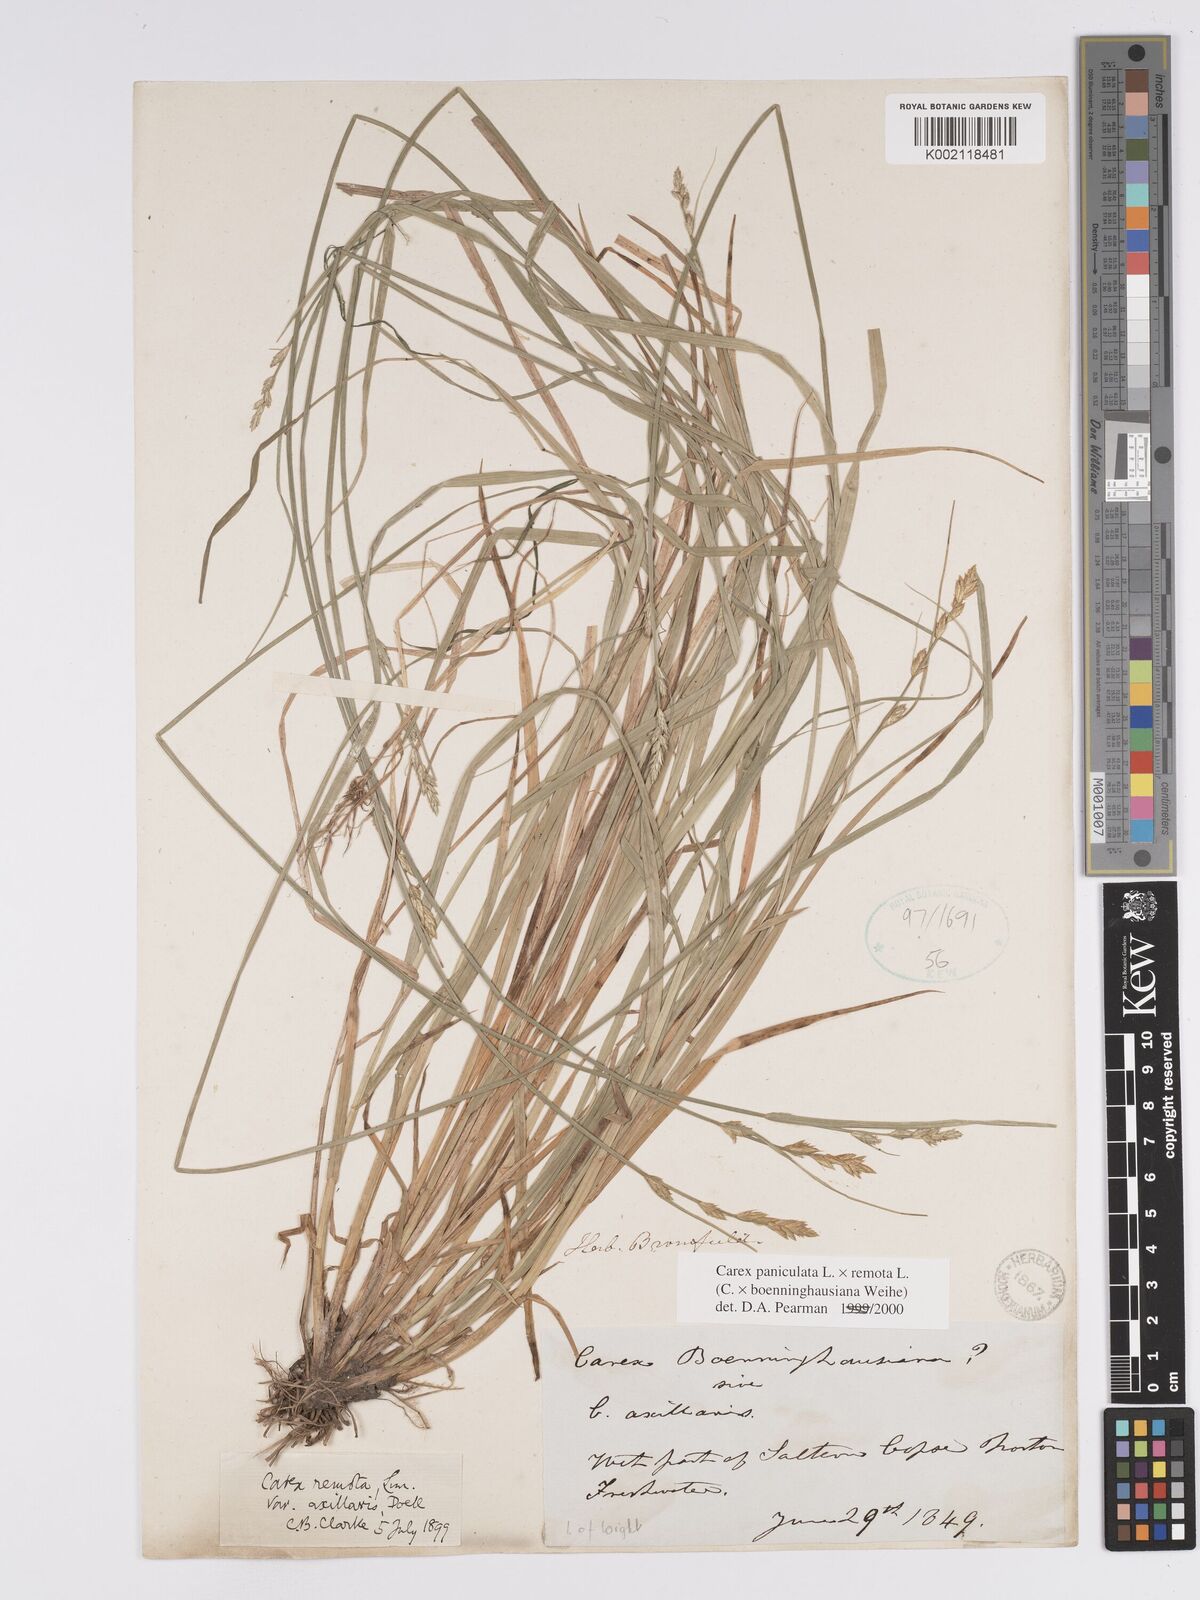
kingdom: Plantae
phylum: Tracheophyta
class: Liliopsida
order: Poales
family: Cyperaceae
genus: Carex
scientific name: Carex boenninghausiana
